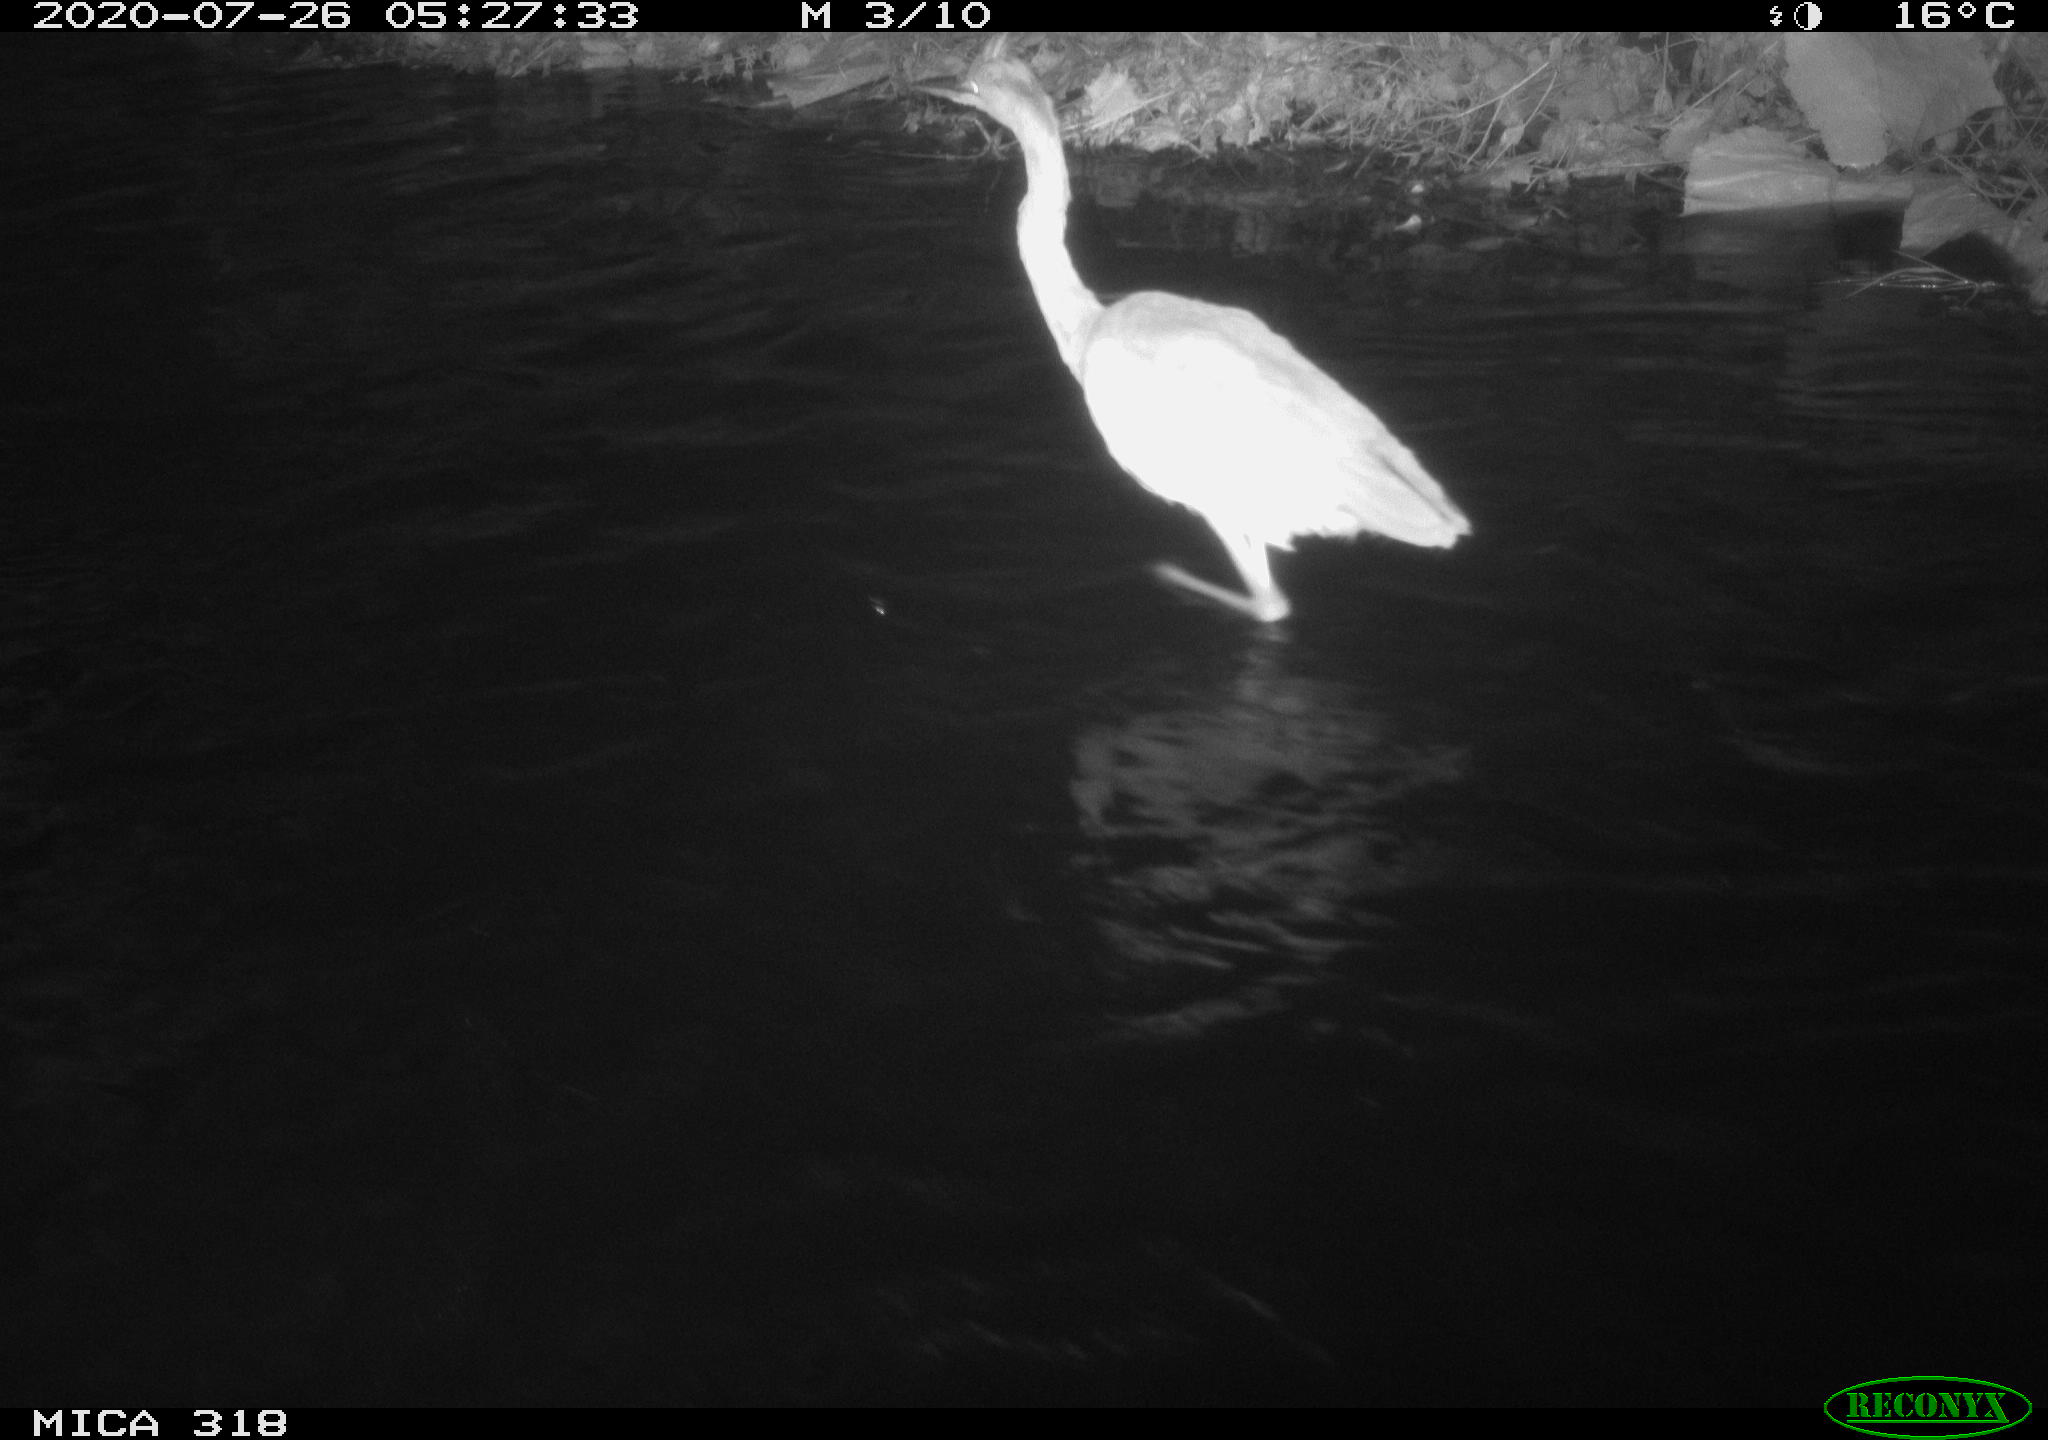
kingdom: Animalia
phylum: Chordata
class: Aves
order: Pelecaniformes
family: Ardeidae
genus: Ardea
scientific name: Ardea cinerea
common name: Grey heron
